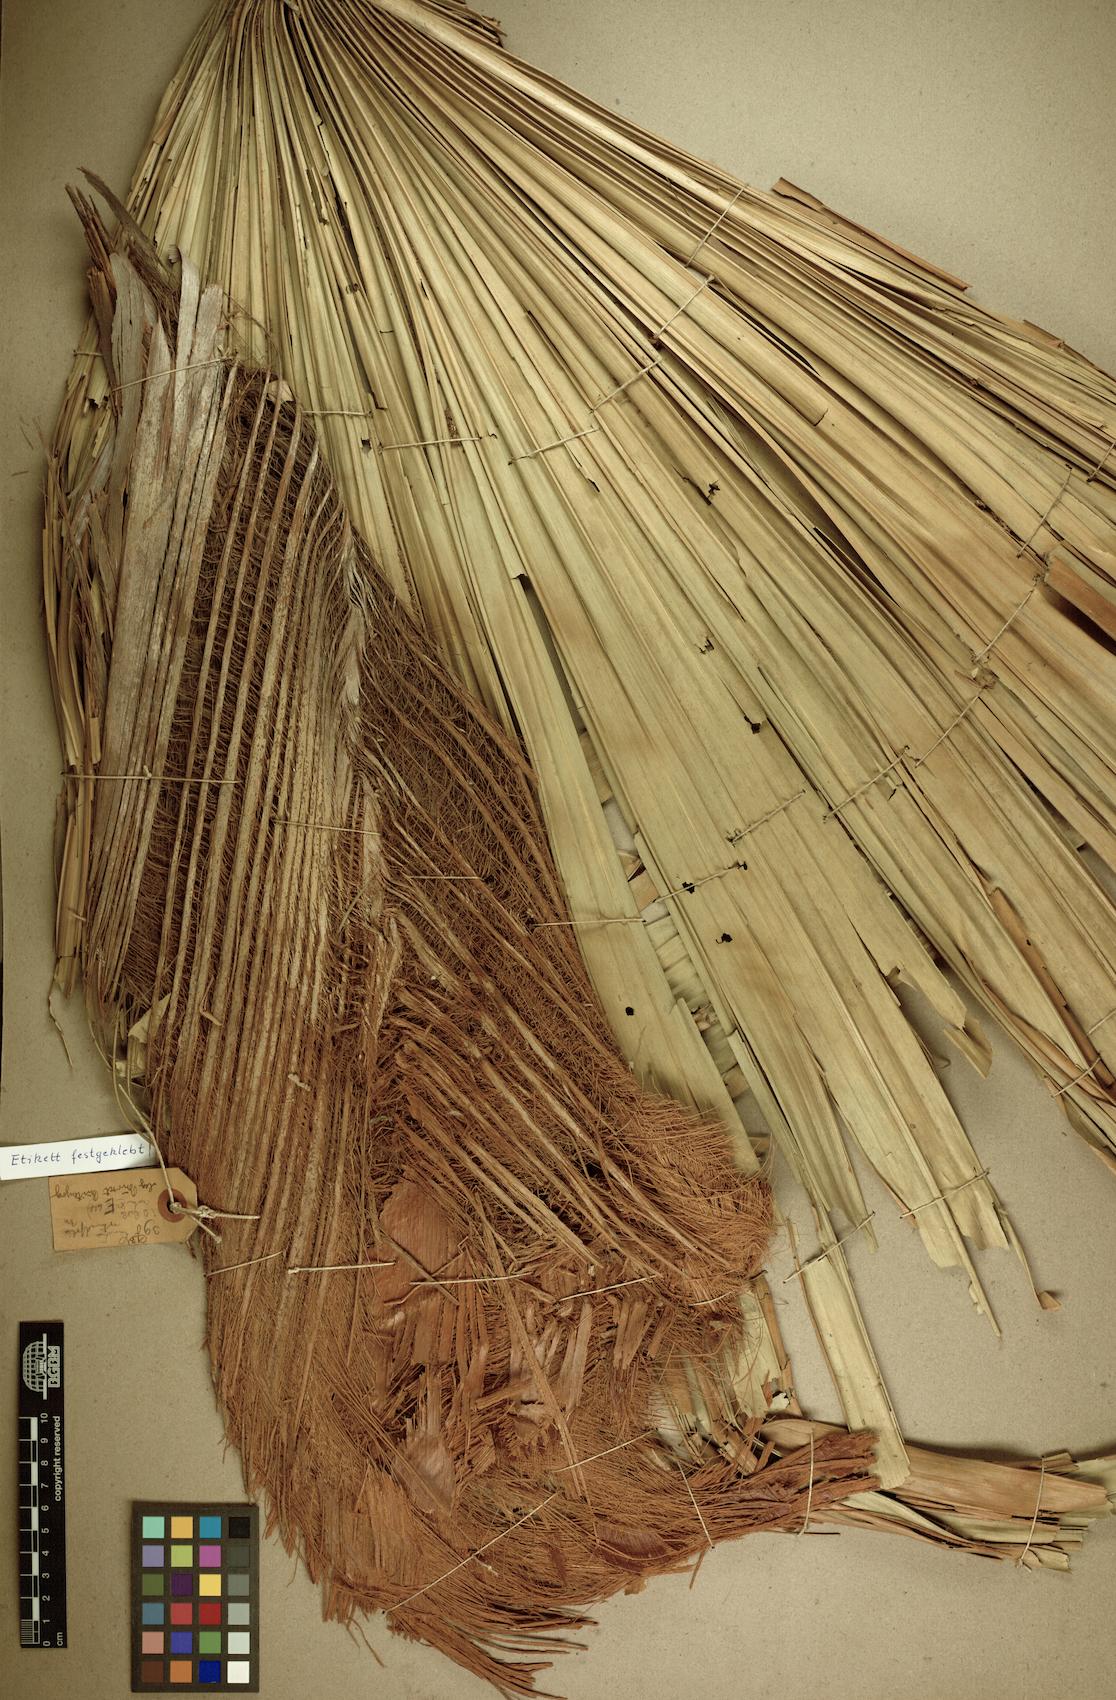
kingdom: Plantae
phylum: Tracheophyta
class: Liliopsida
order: Arecales
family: Arecaceae
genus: Saribus
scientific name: Saribus rotundifolius
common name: Palm
